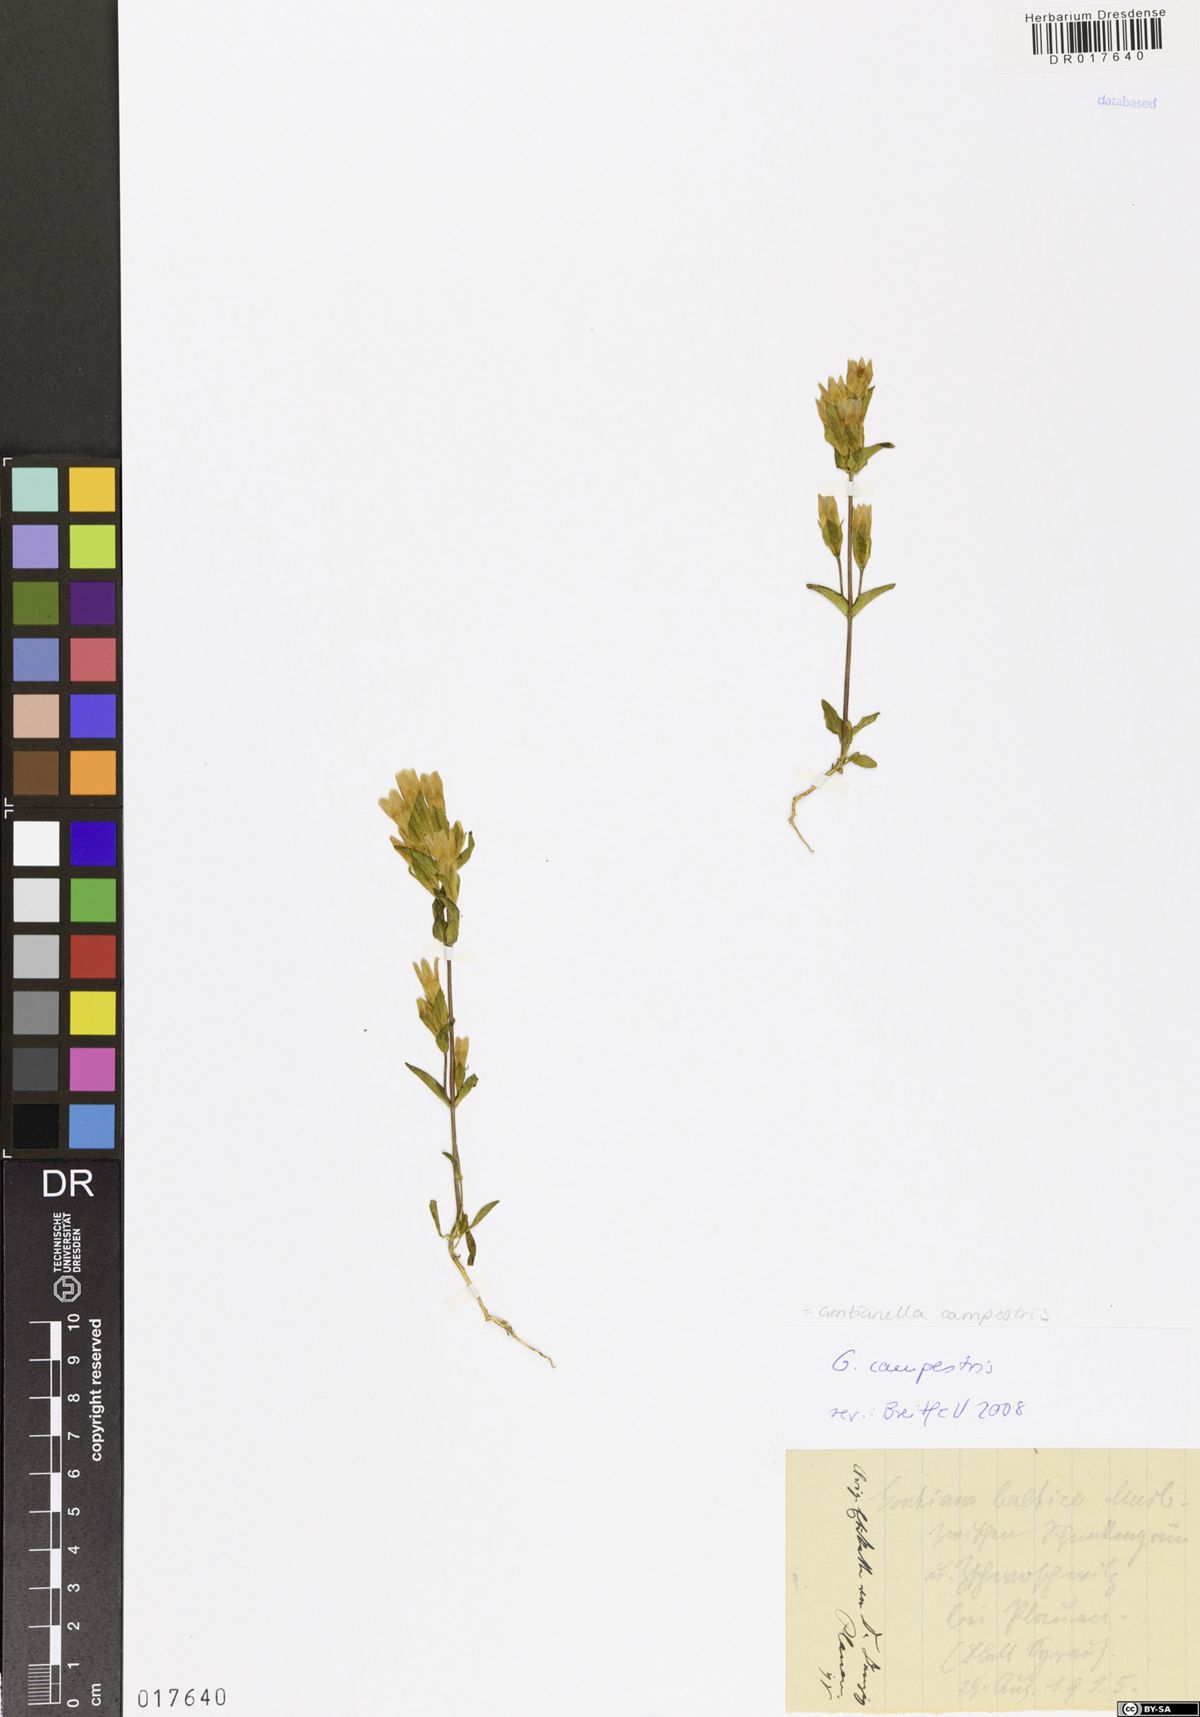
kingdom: Plantae
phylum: Tracheophyta
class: Magnoliopsida
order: Gentianales
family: Gentianaceae
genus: Gentianella
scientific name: Gentianella campestris
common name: Field gentian
